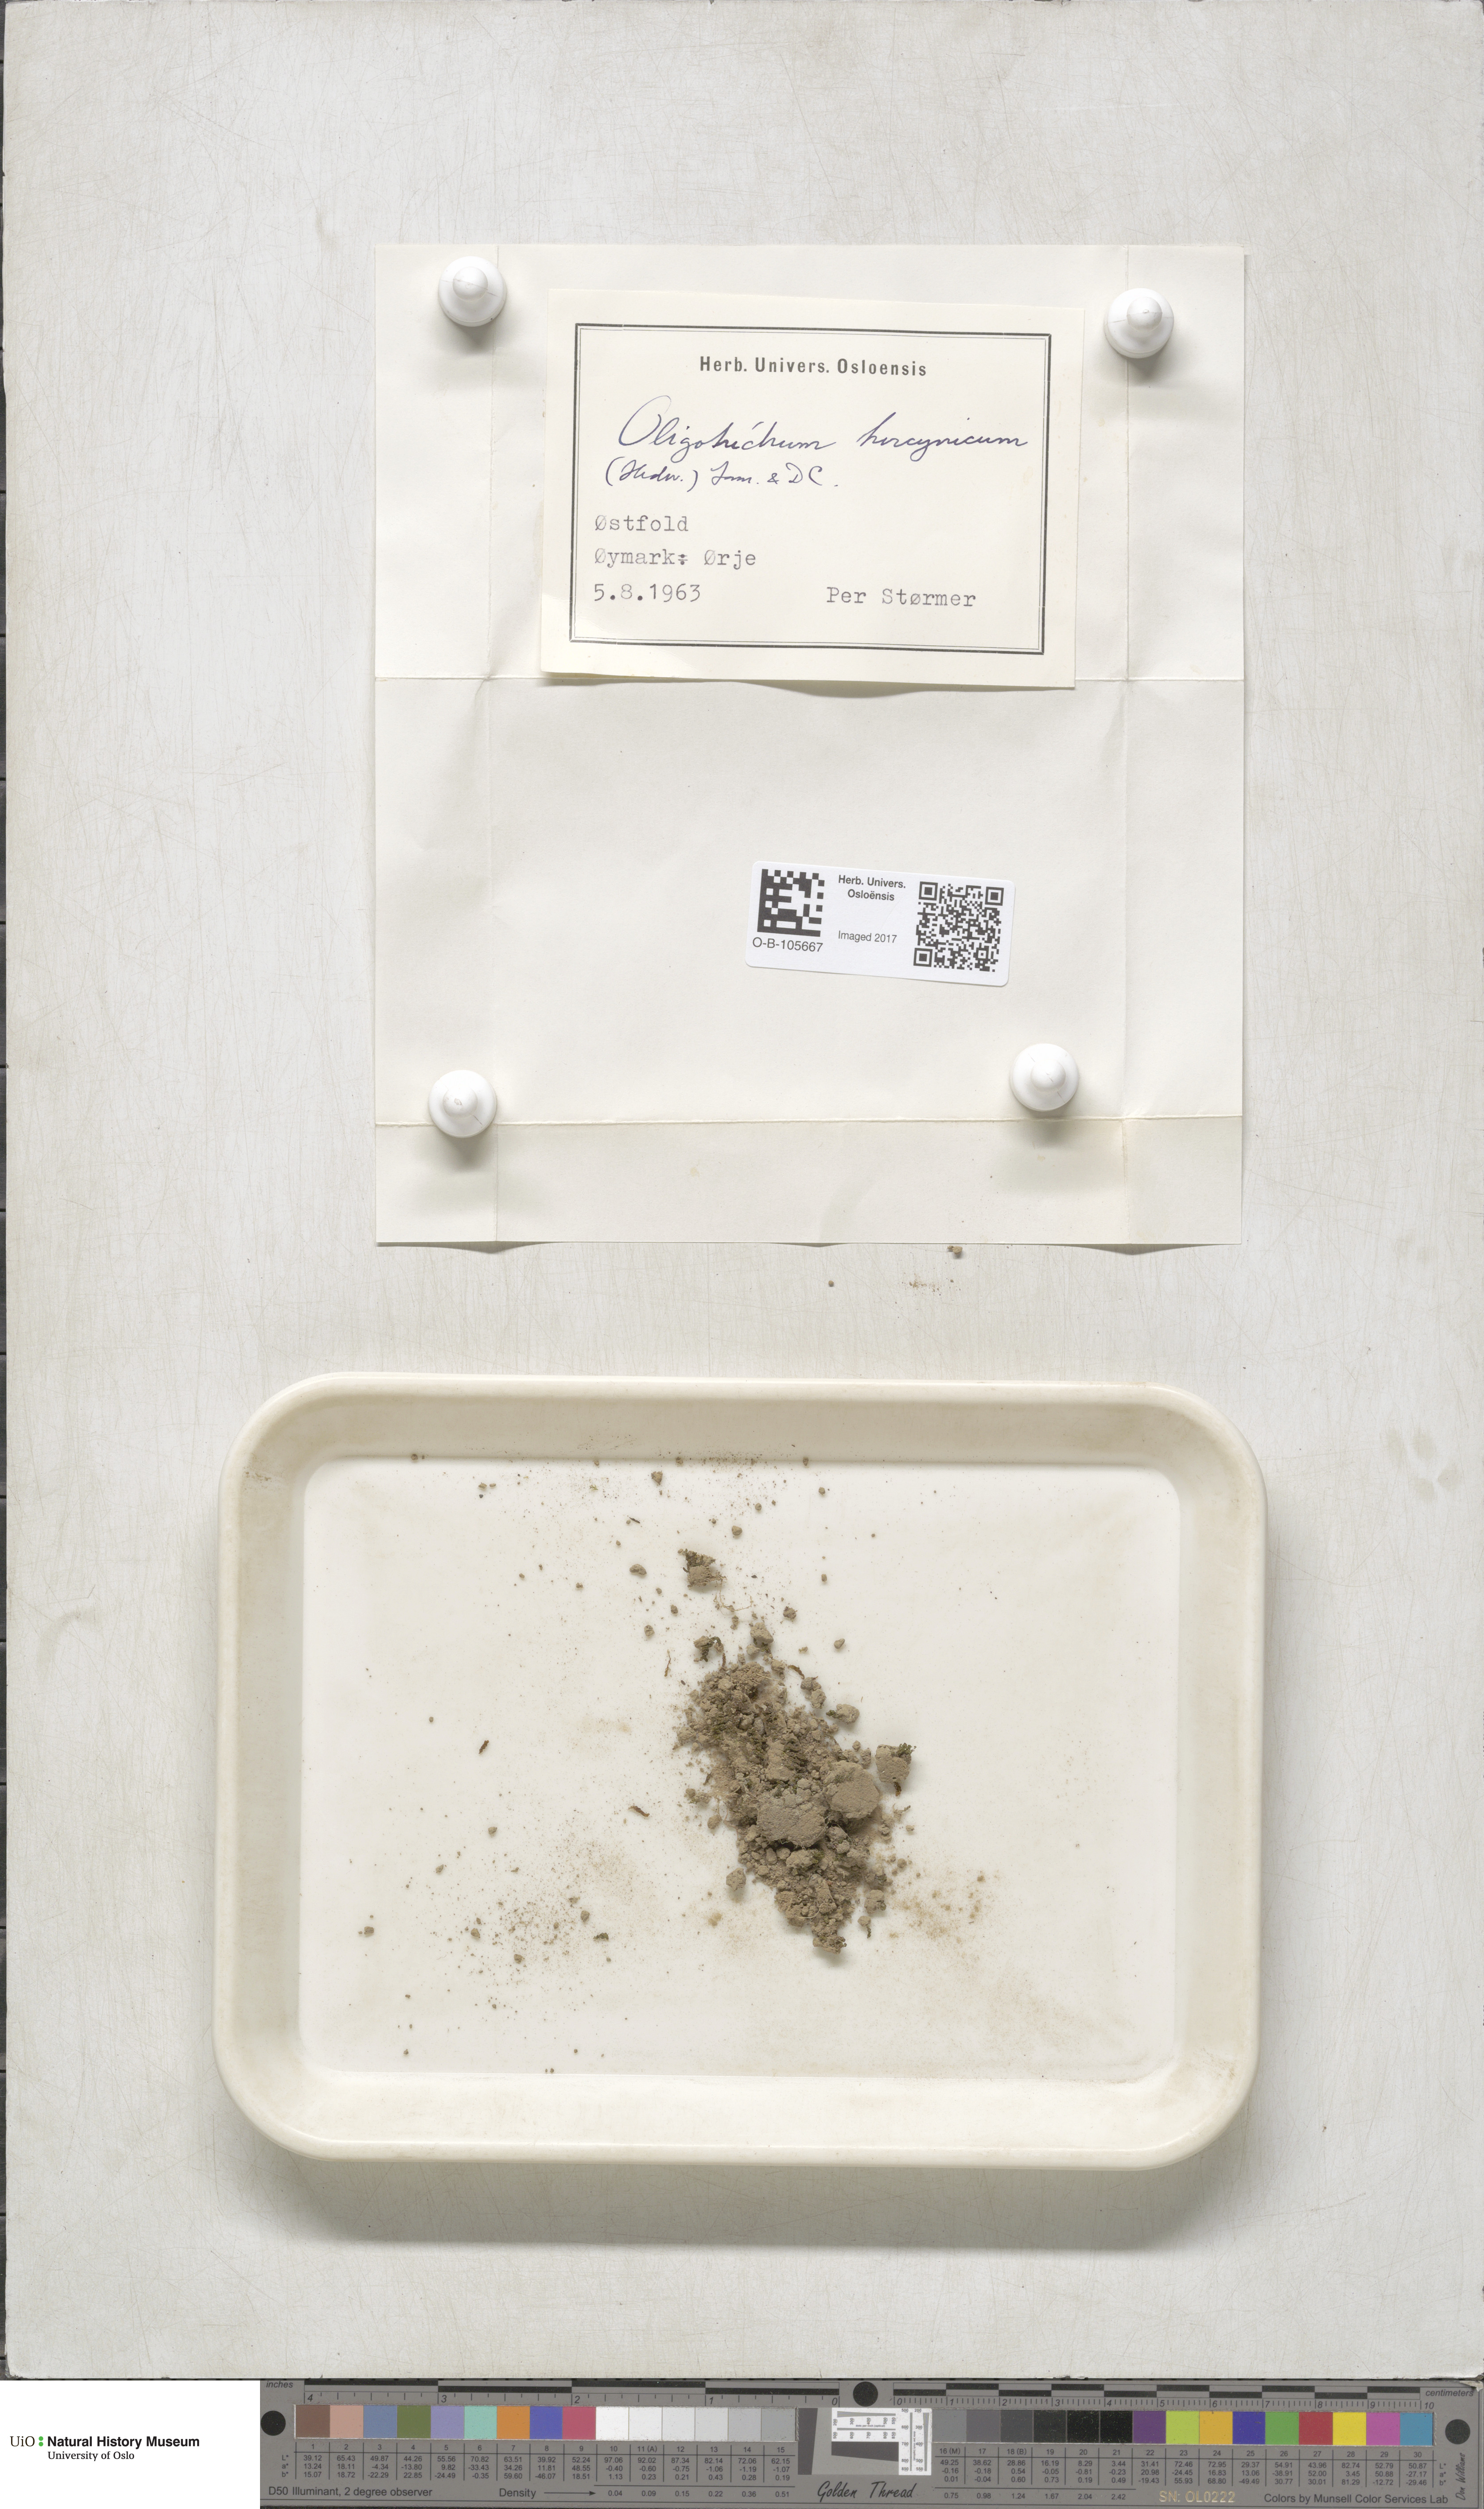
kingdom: Plantae
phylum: Bryophyta
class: Polytrichopsida
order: Polytrichales
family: Polytrichaceae
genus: Oligotrichum
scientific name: Oligotrichum hercynicum
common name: Hercynian hair moss
